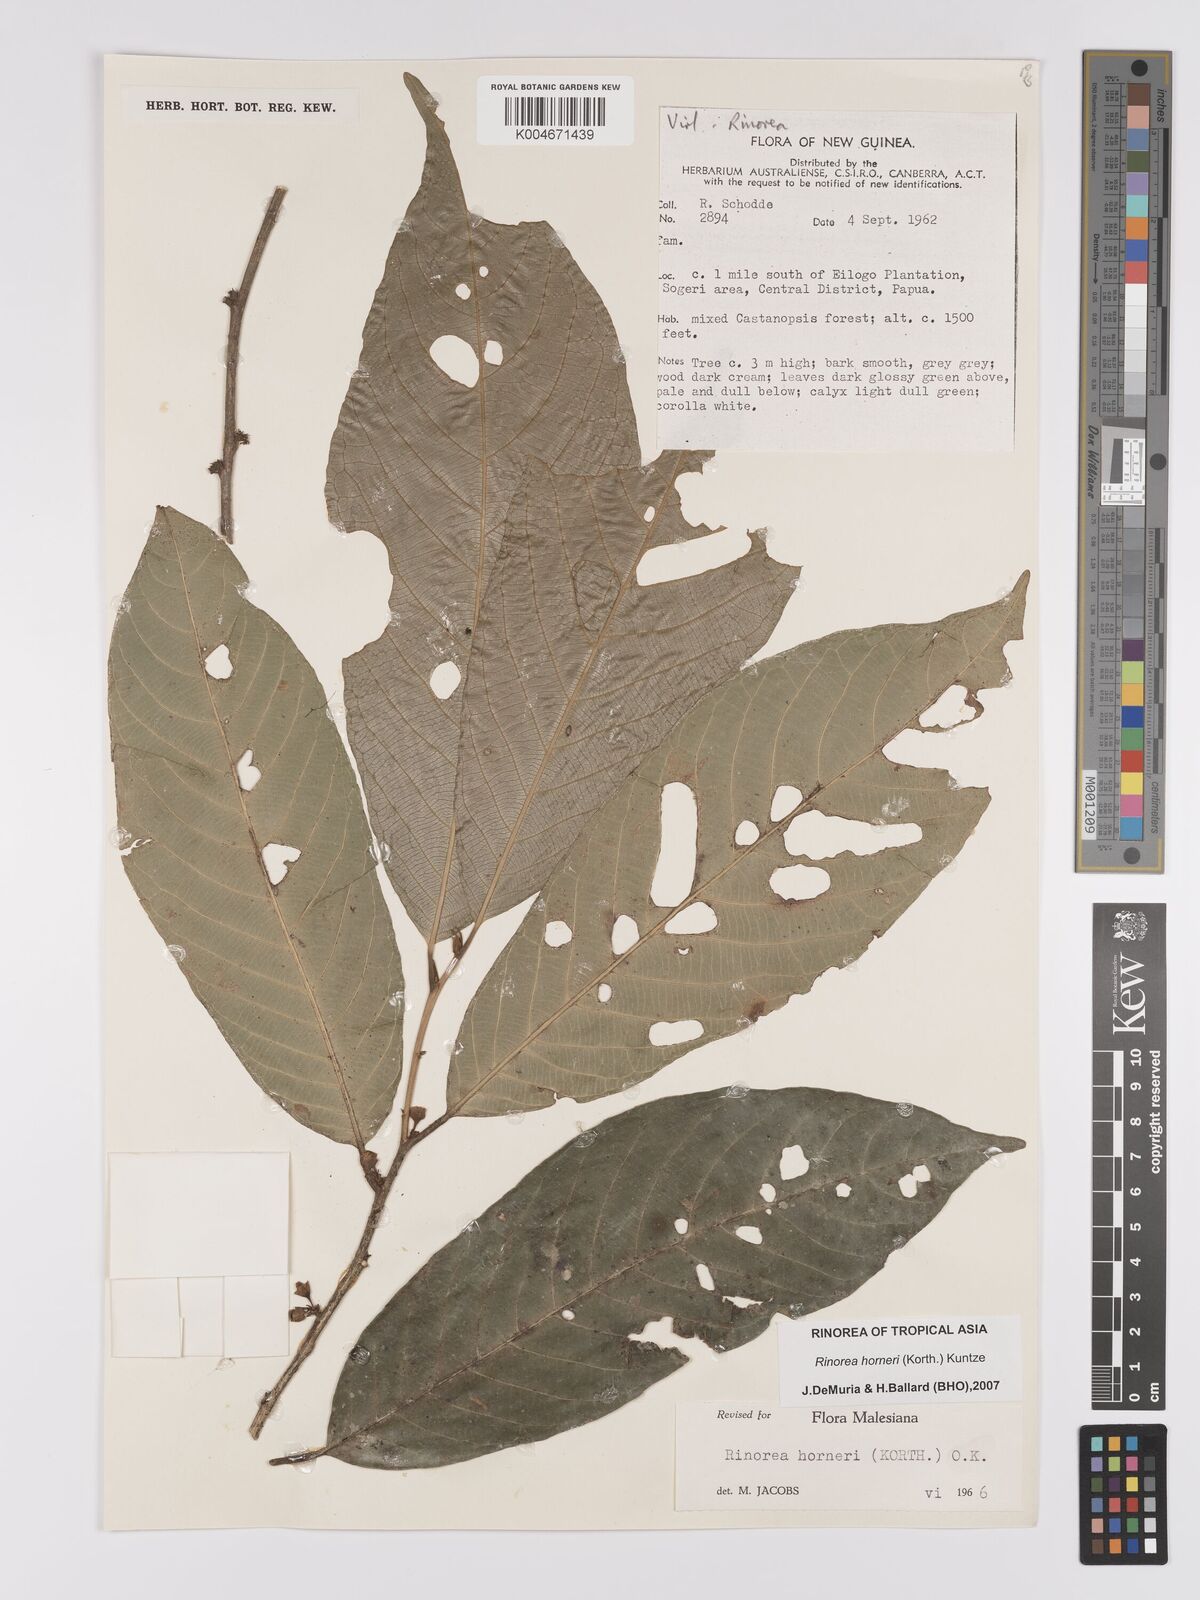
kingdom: Plantae
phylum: Tracheophyta
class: Magnoliopsida
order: Malpighiales
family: Violaceae
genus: Rinorea
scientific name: Rinorea horneri
